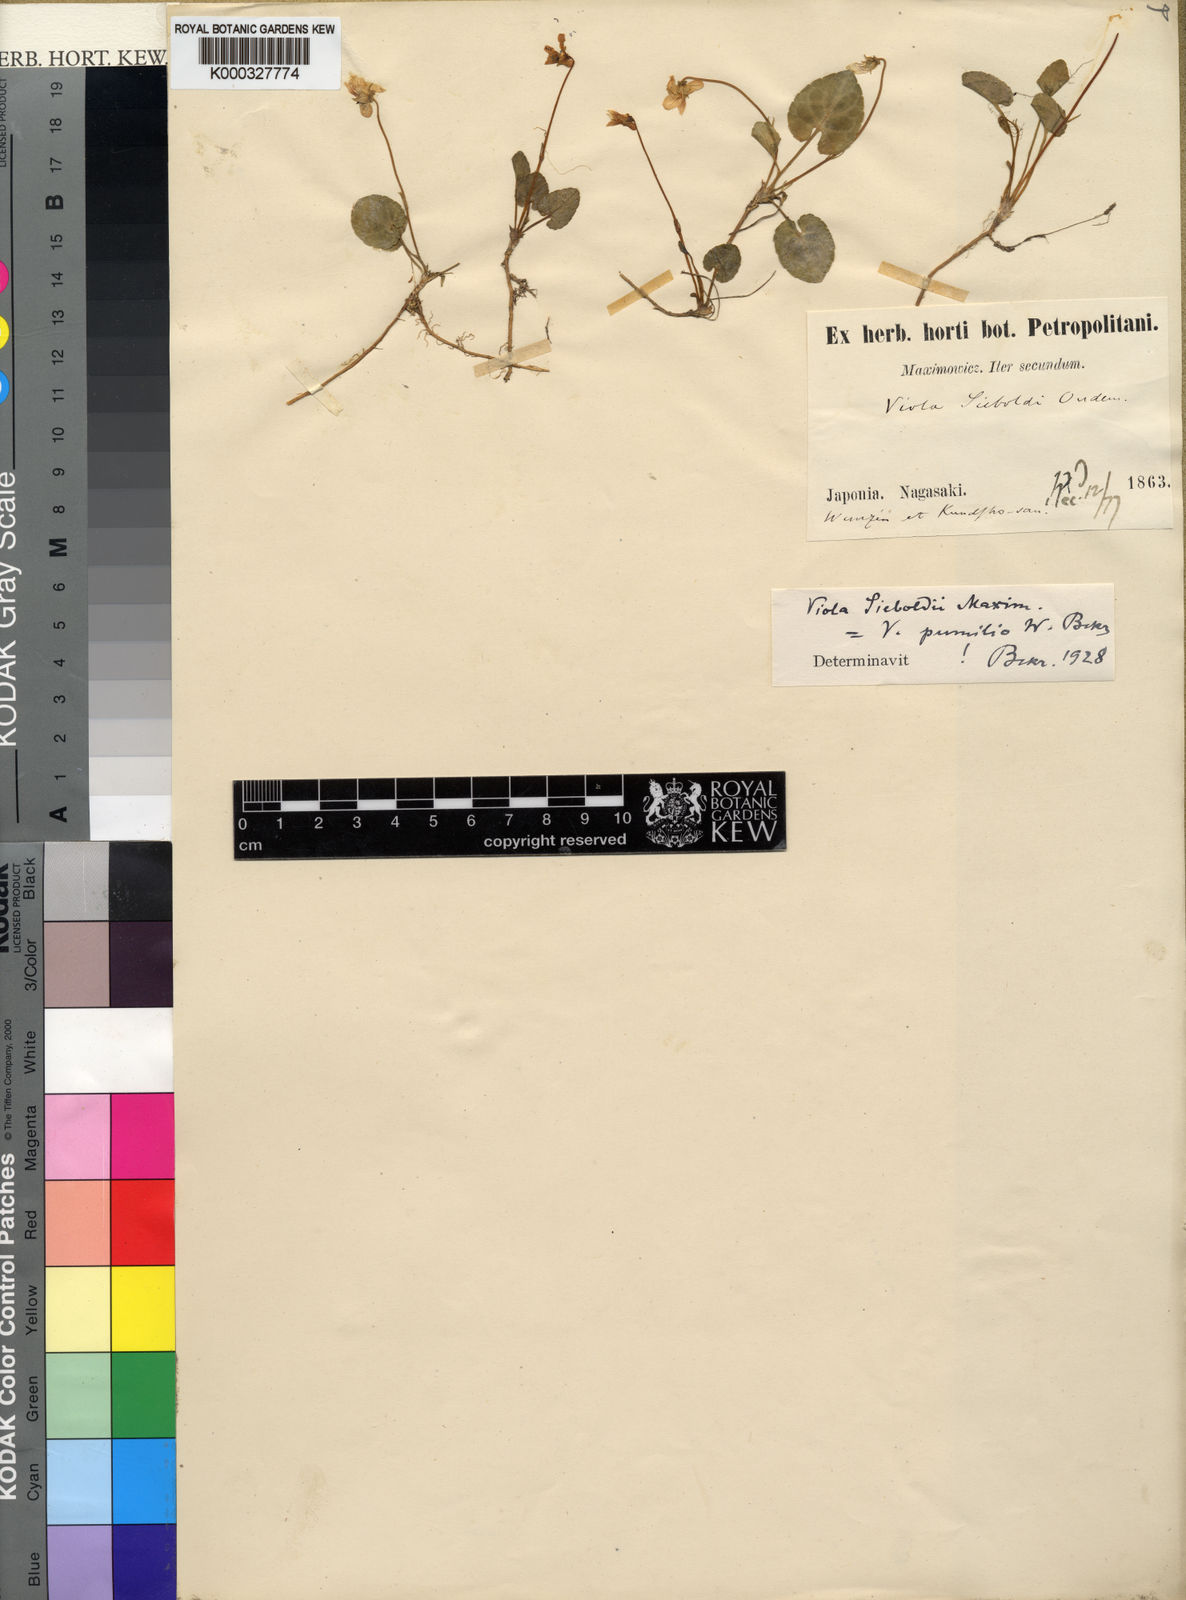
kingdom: Plantae
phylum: Tracheophyta
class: Magnoliopsida
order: Malpighiales
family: Violaceae
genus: Viola
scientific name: Viola sieboldii
